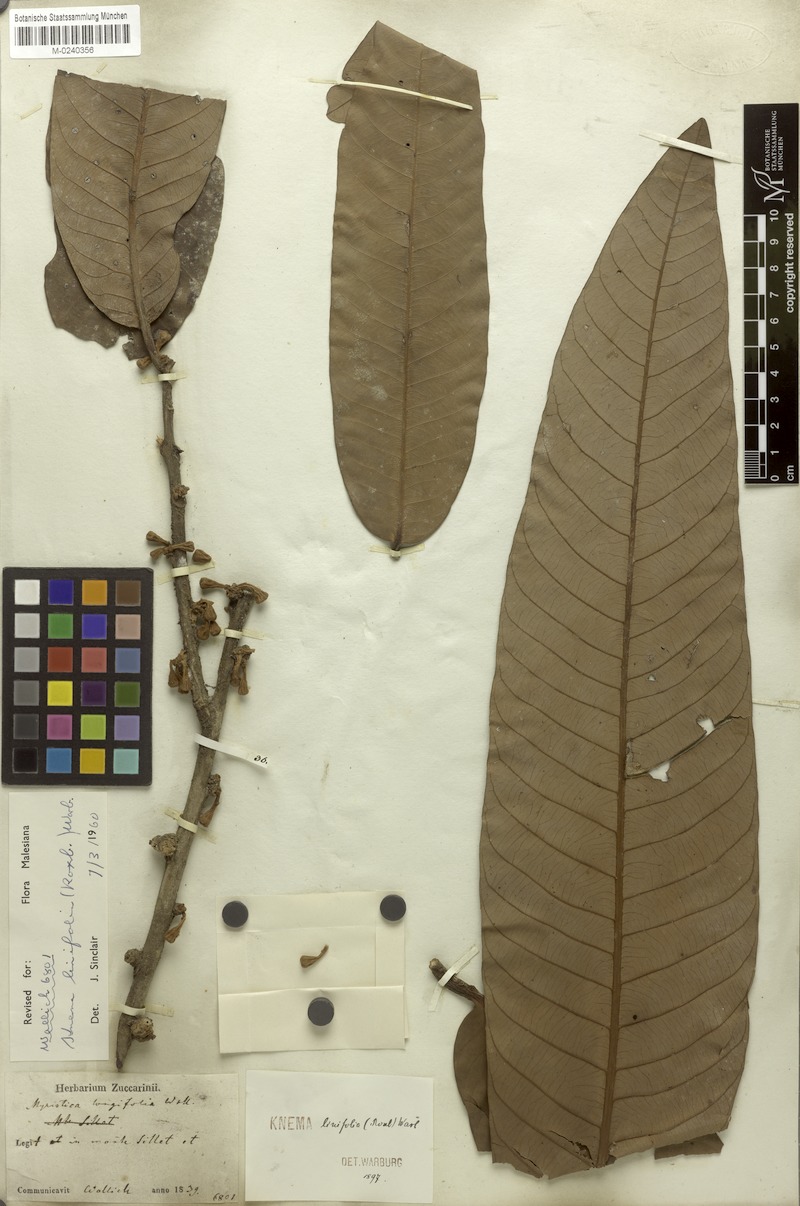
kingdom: Plantae
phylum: Tracheophyta
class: Magnoliopsida
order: Magnoliales
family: Myristicaceae
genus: Knema
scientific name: Knema linifolia
